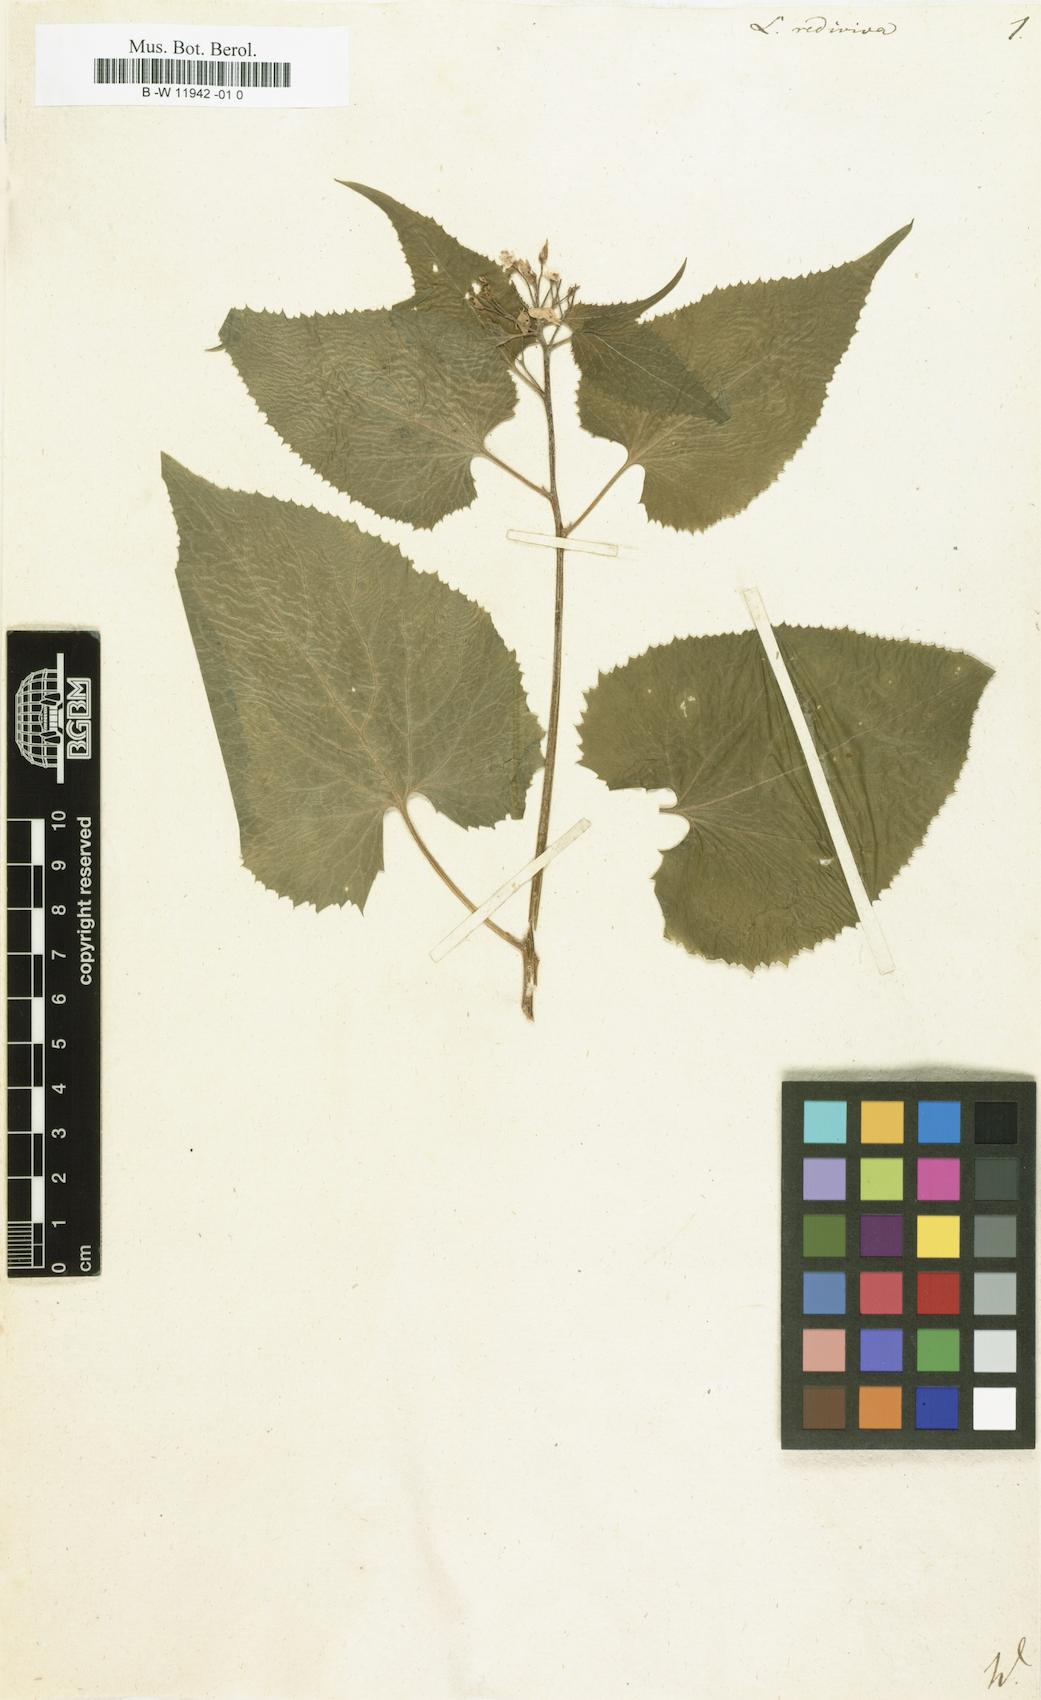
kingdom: Plantae
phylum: Tracheophyta
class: Magnoliopsida
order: Brassicales
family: Brassicaceae
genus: Lunaria
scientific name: Lunaria rediviva
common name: Perennial honesty
